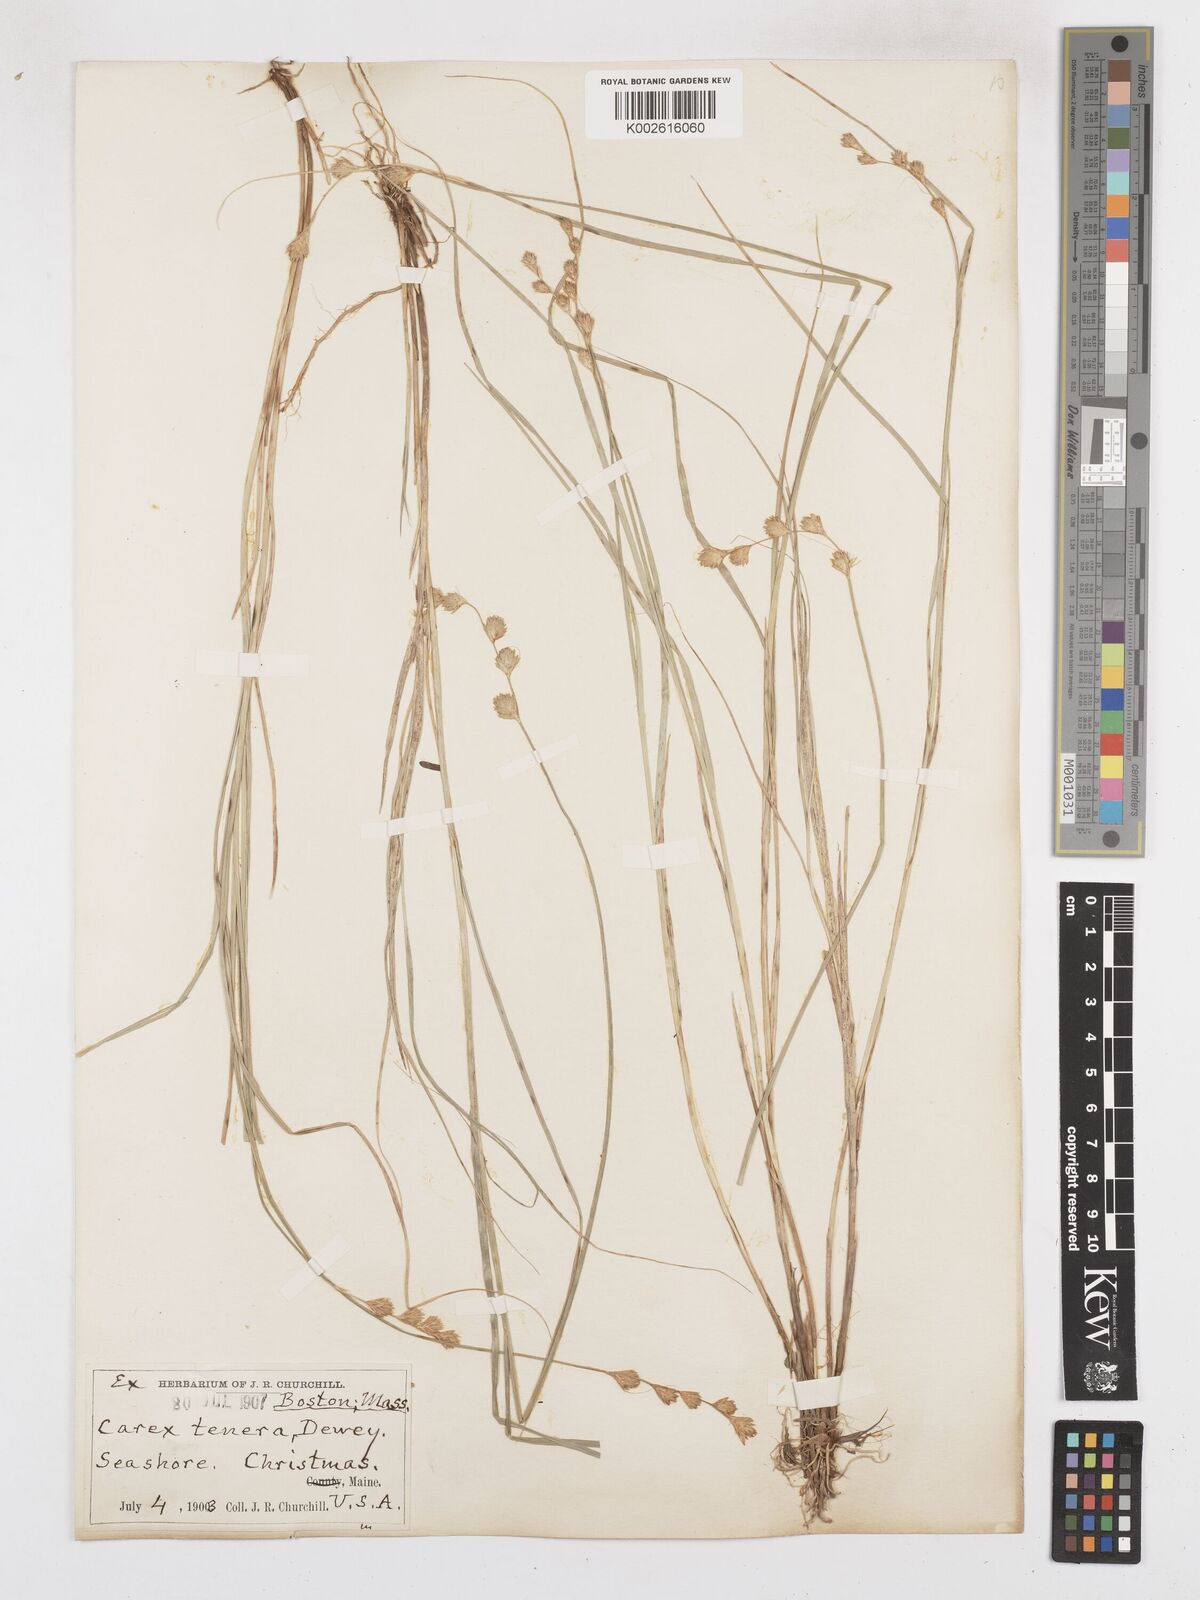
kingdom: Plantae
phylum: Tracheophyta
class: Liliopsida
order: Poales
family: Cyperaceae
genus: Carex
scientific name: Carex festucacea
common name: Fescue oval sedge
